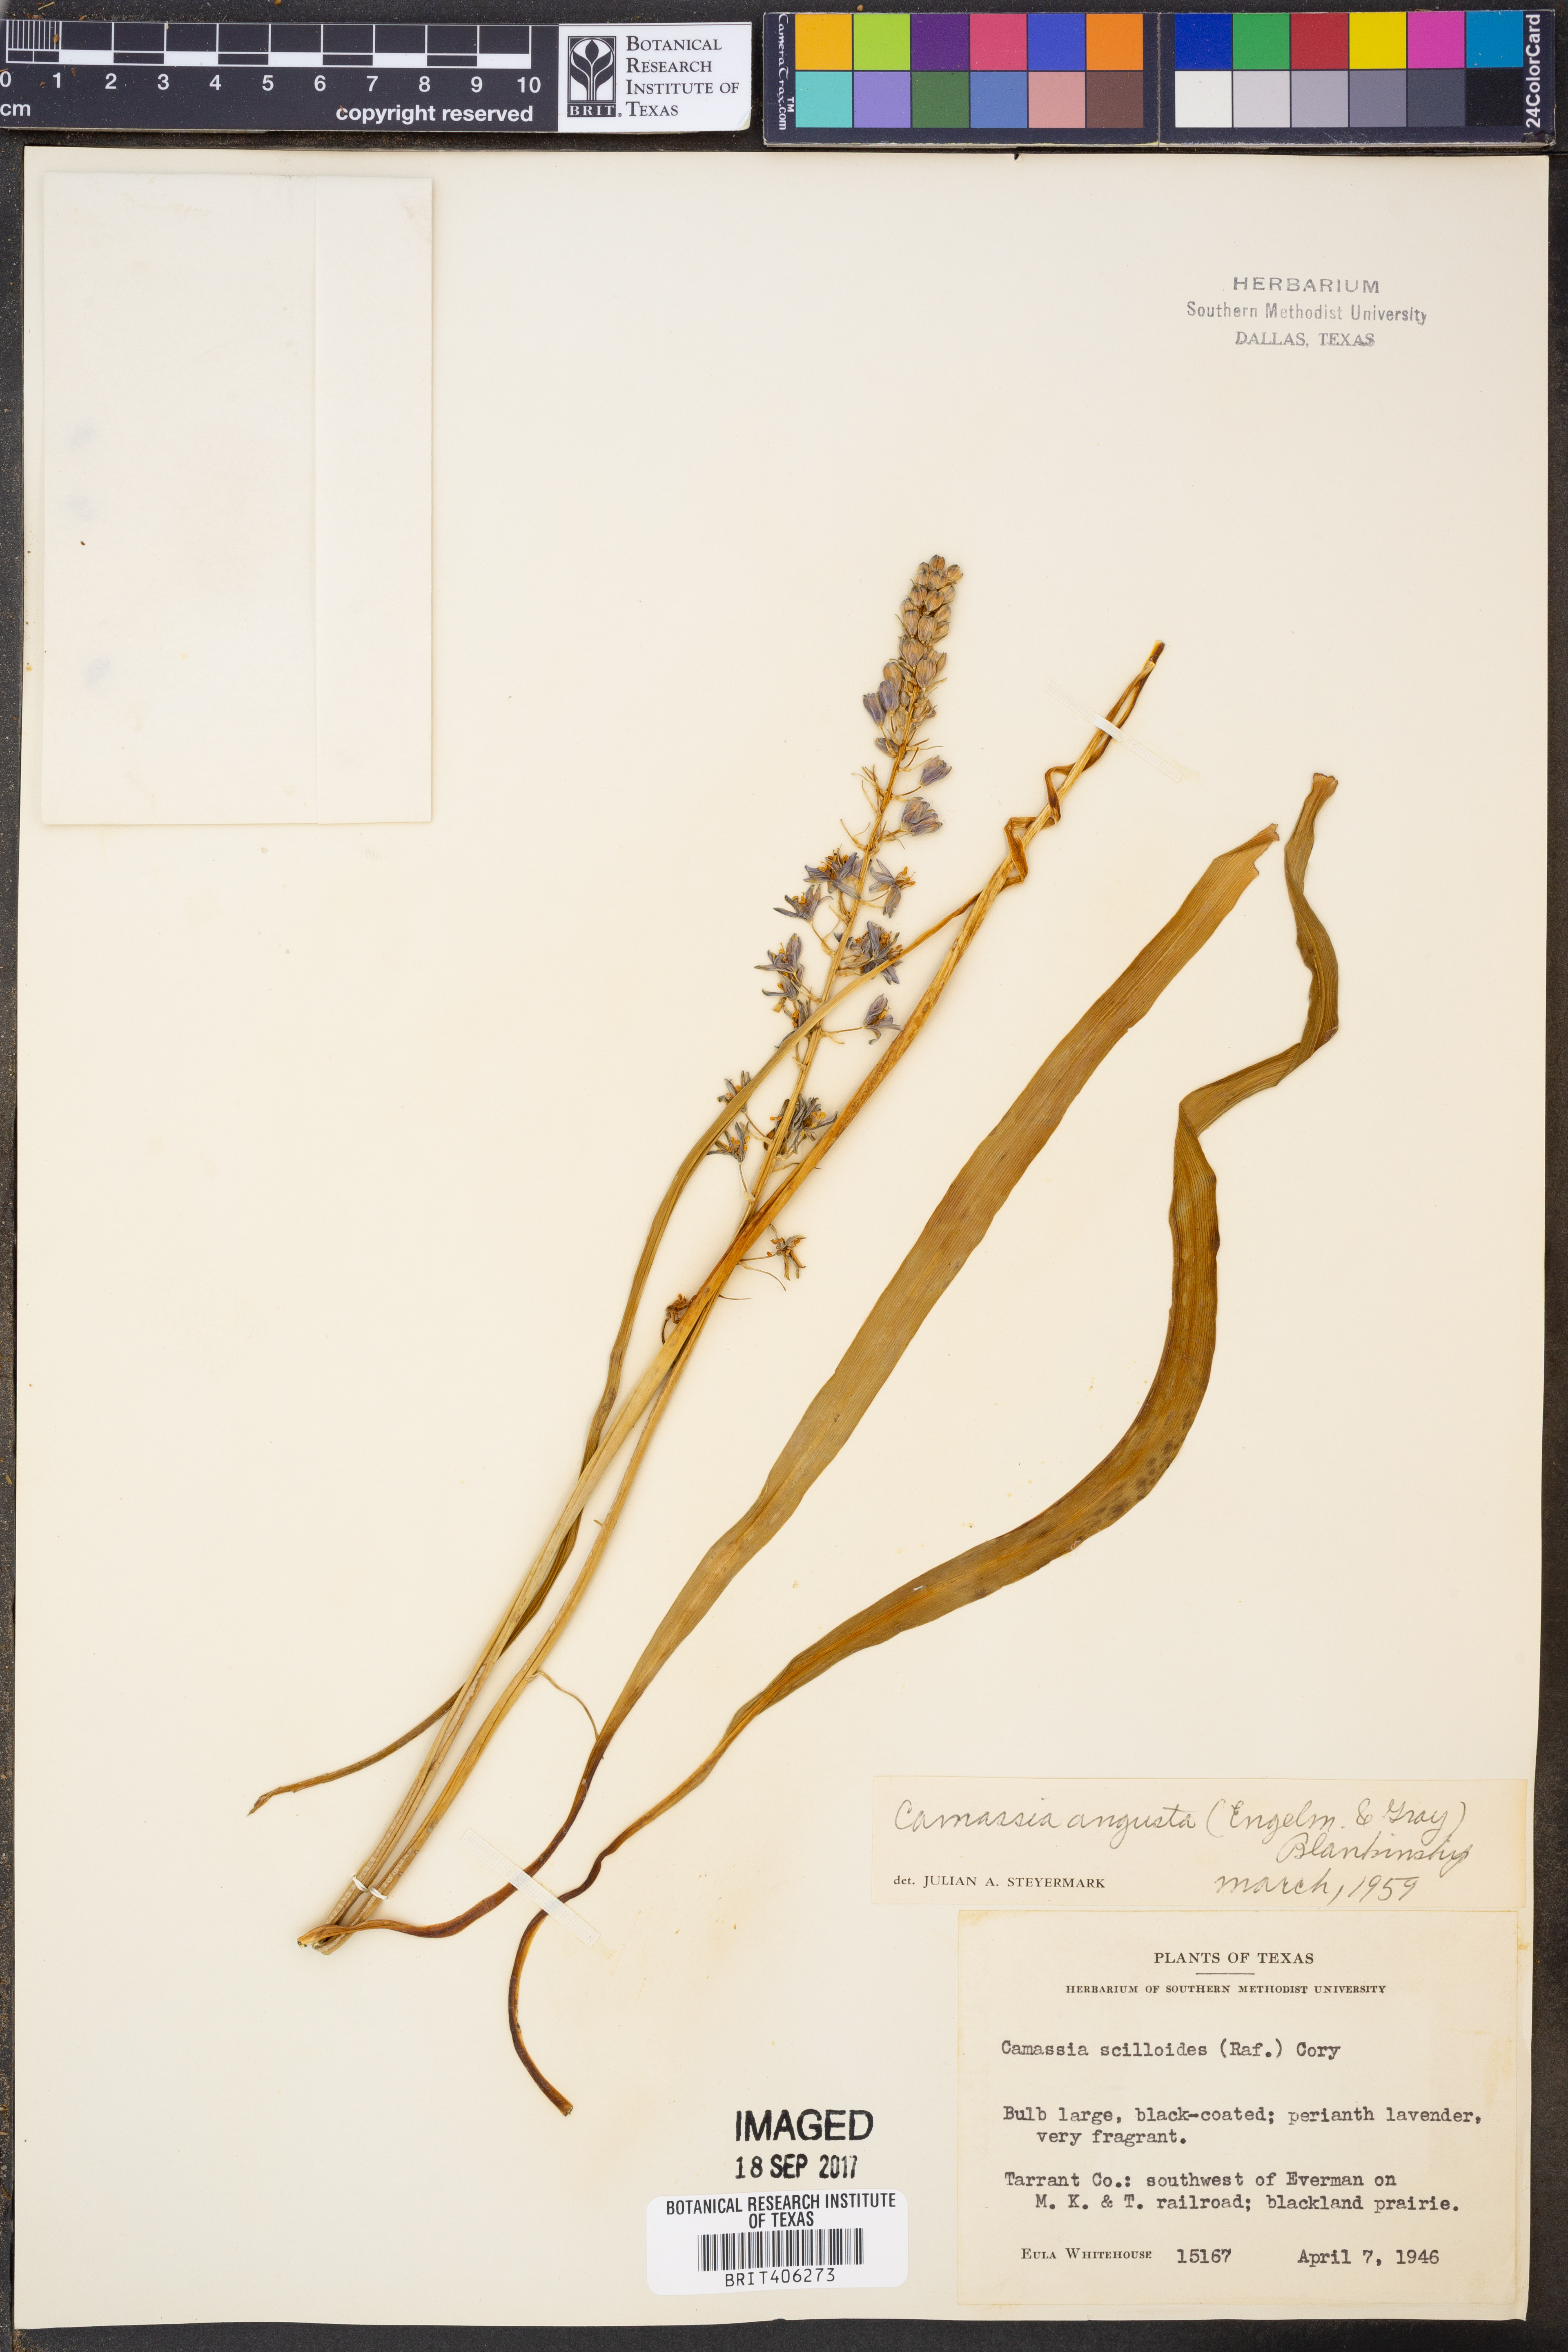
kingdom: Plantae
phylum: Tracheophyta
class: Liliopsida
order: Asparagales
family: Asparagaceae
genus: Camassia
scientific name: Camassia angusta
